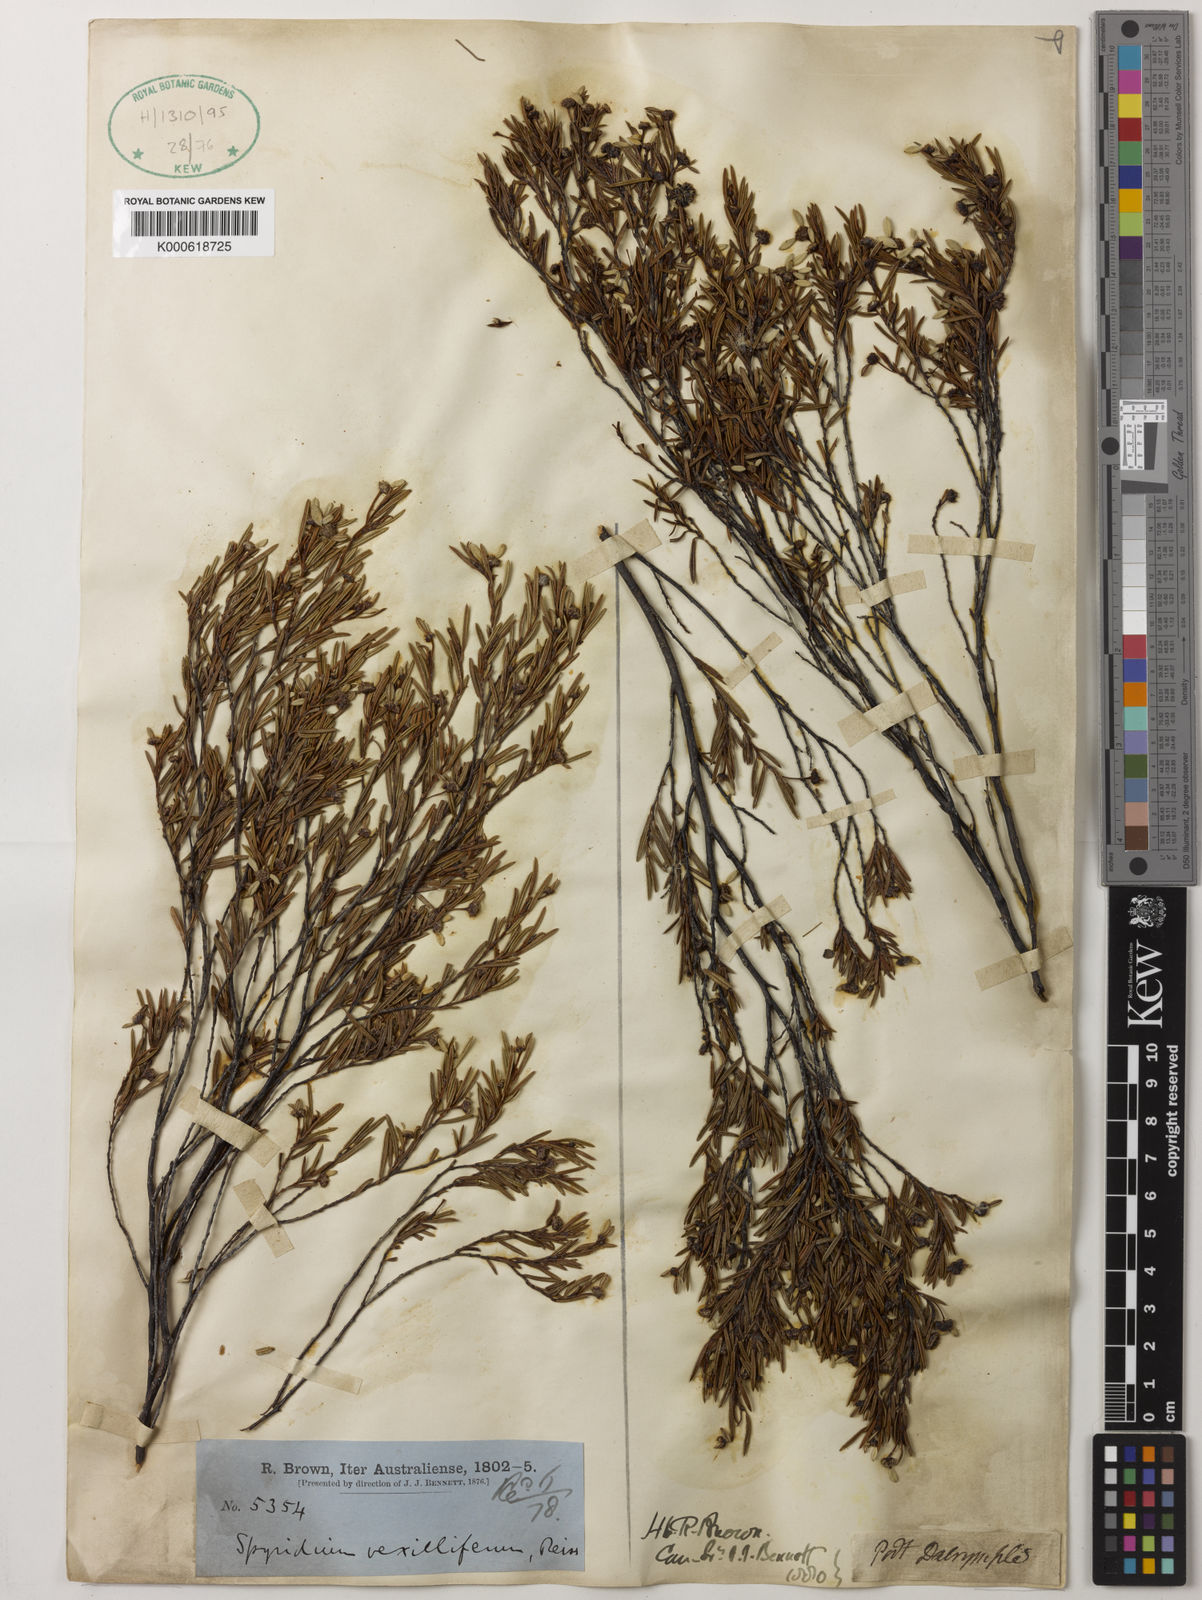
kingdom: Plantae
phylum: Tracheophyta
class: Magnoliopsida
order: Rosales
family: Rhamnaceae
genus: Spyridium
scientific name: Spyridium vexilliferum
